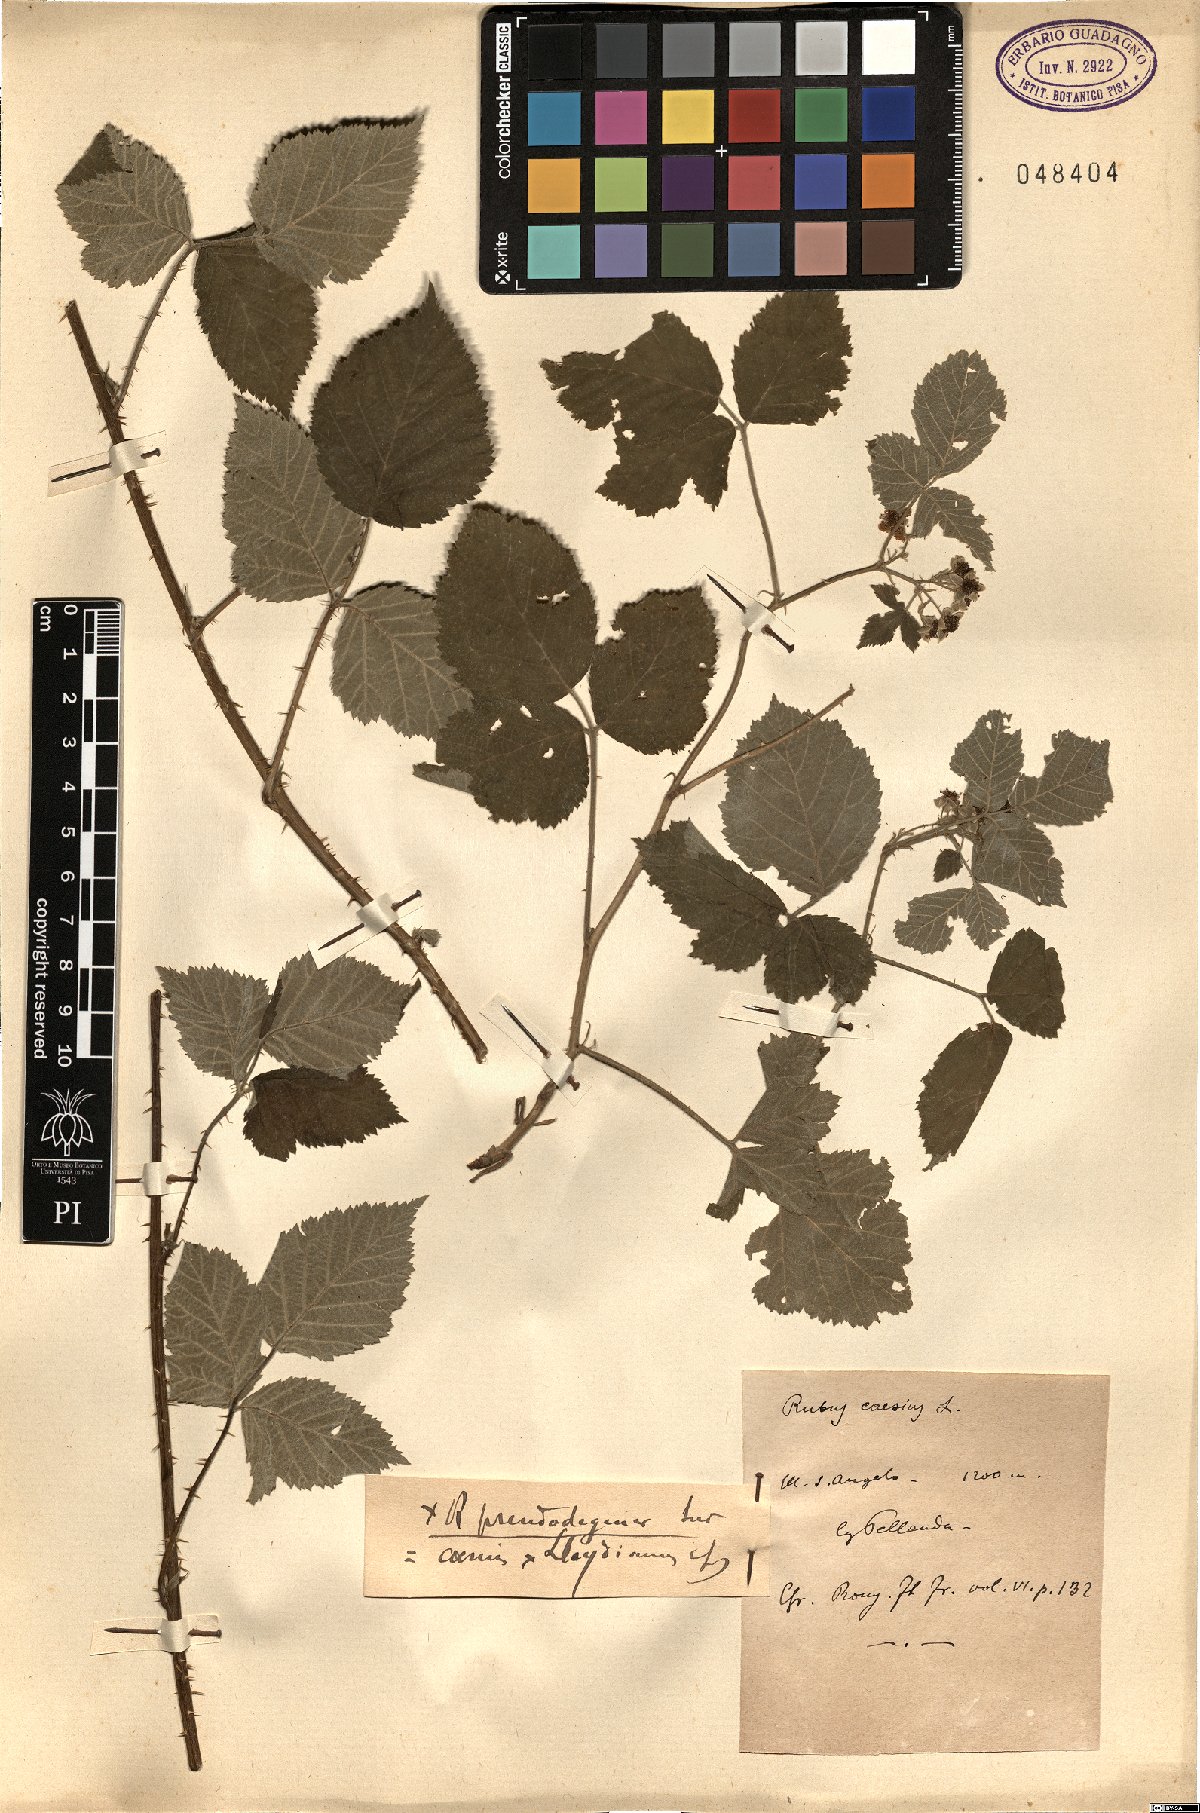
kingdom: Plantae
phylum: Tracheophyta
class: Magnoliopsida
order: Rosales
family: Rosaceae
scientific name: Rosaceae
